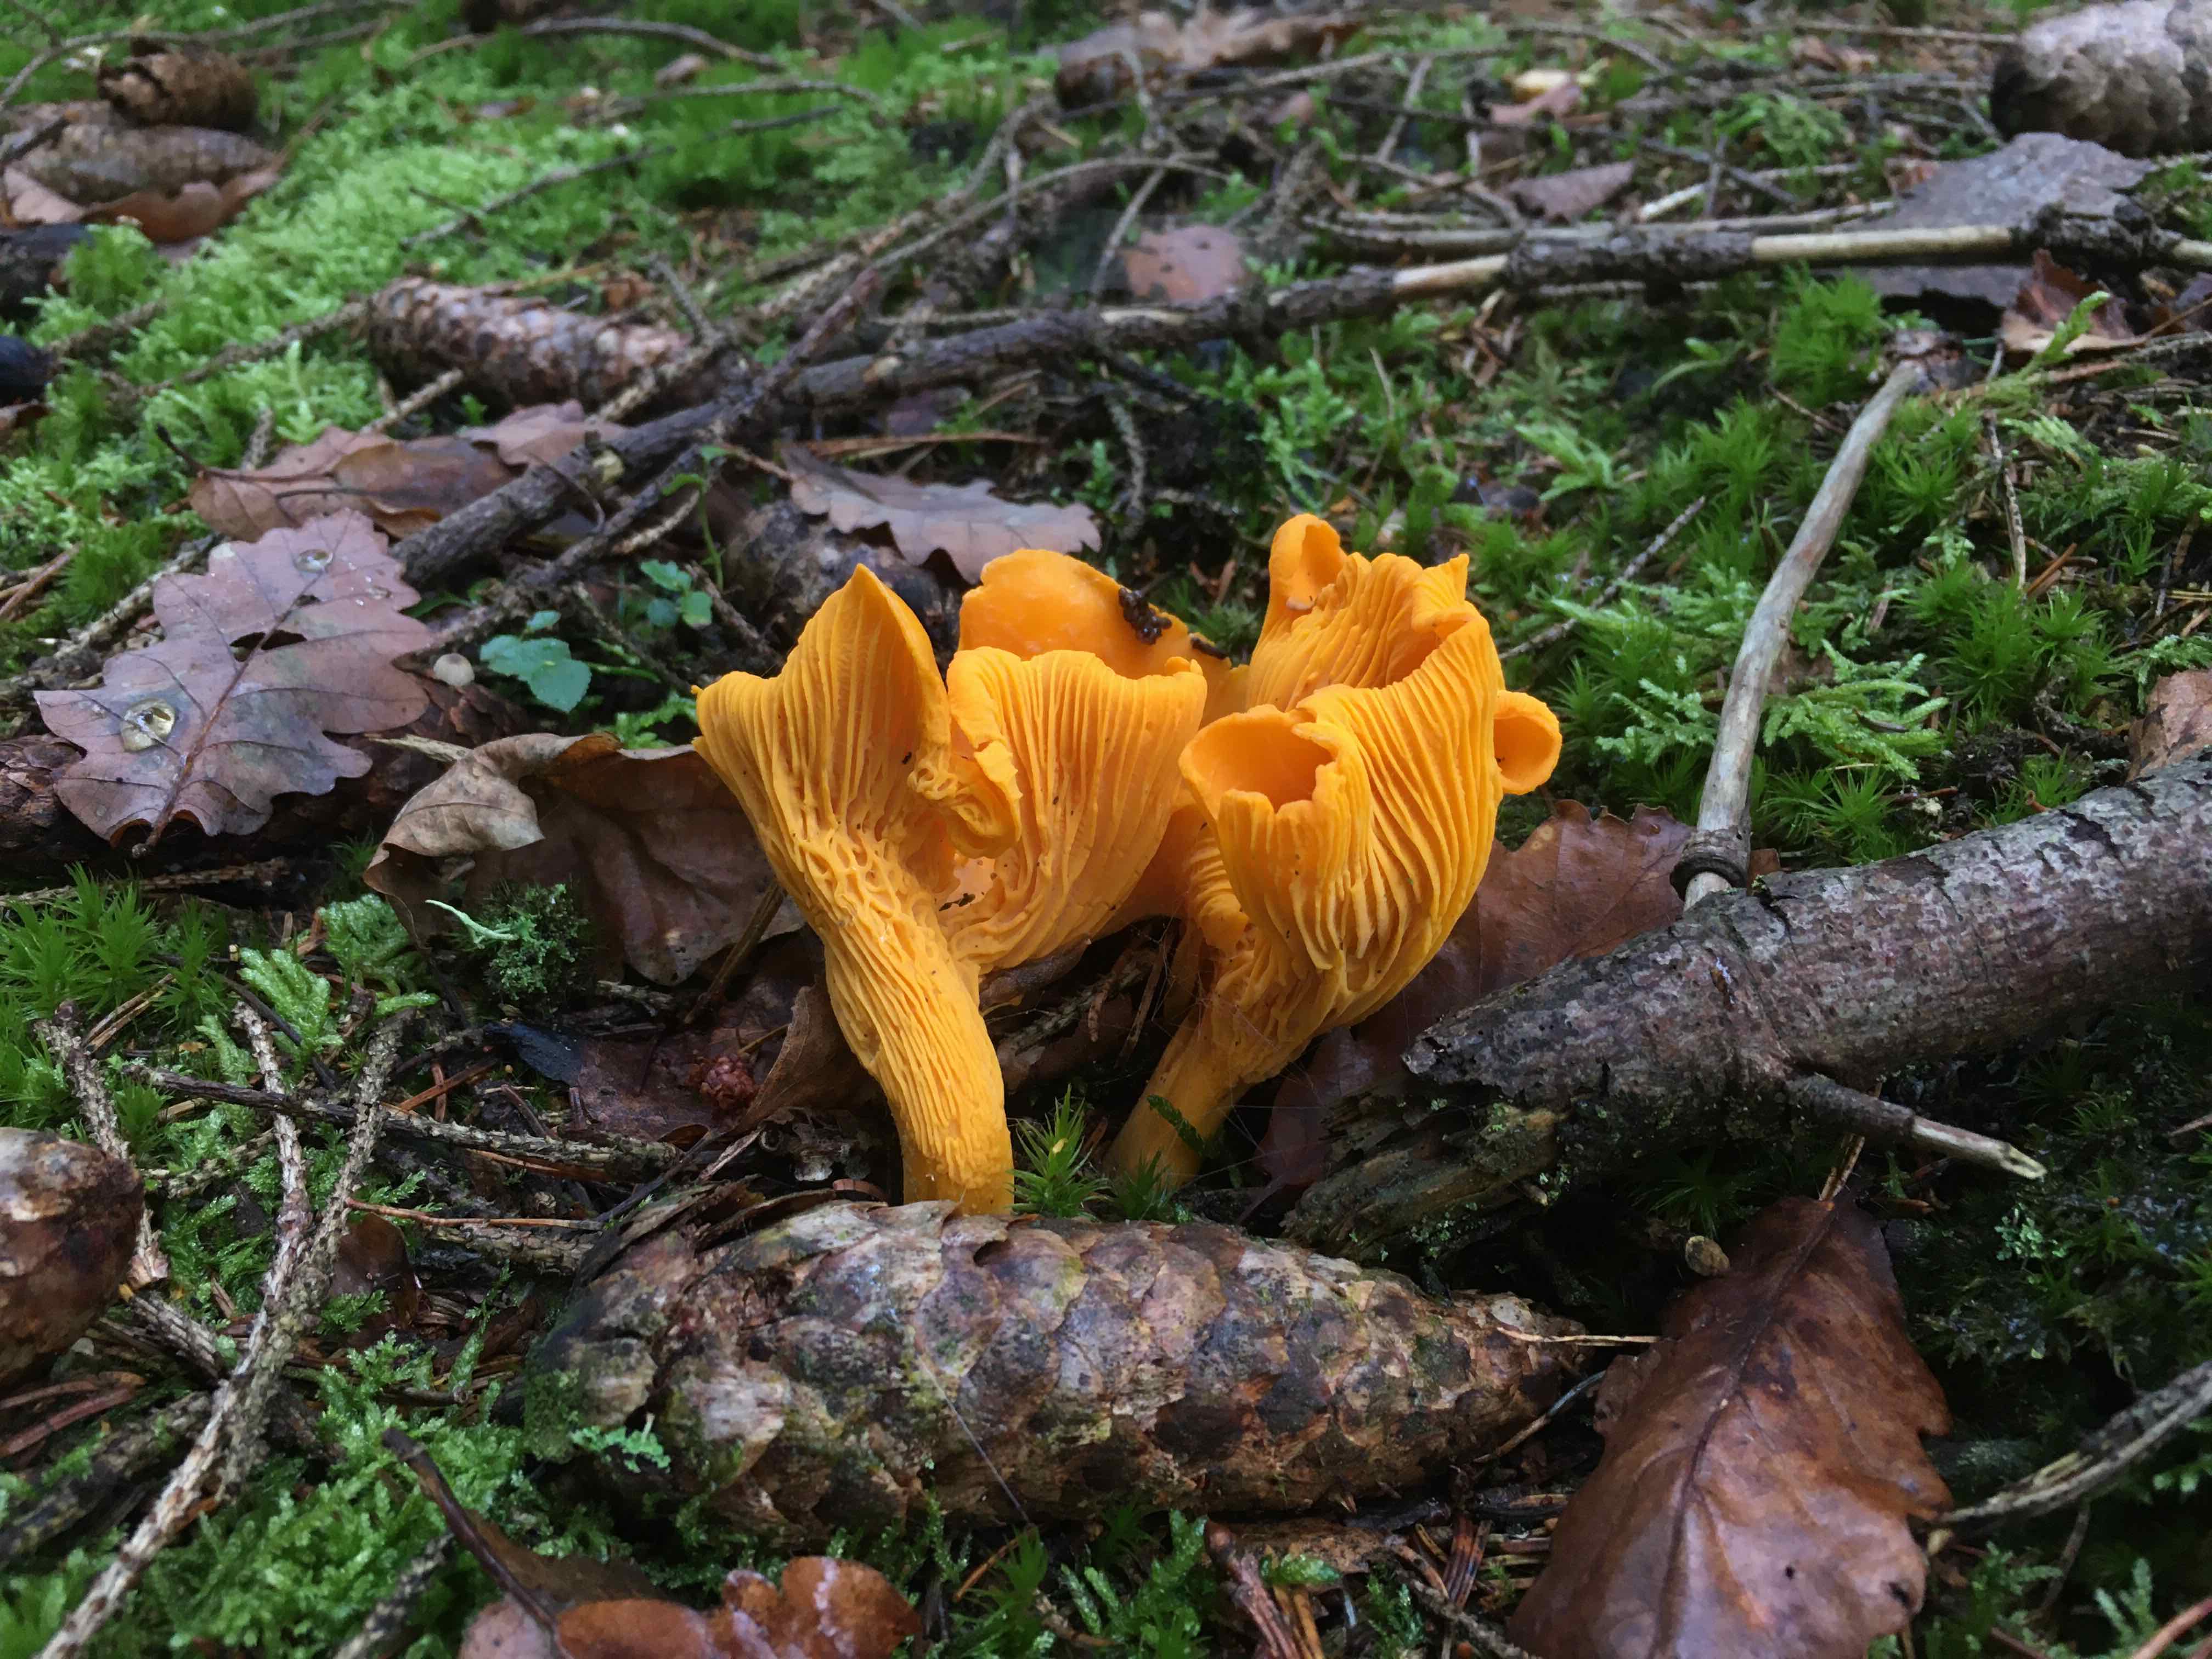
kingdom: Fungi
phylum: Basidiomycota
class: Agaricomycetes
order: Cantharellales
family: Hydnaceae
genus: Cantharellus
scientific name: Cantharellus cibarius
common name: almindelig kantarel
